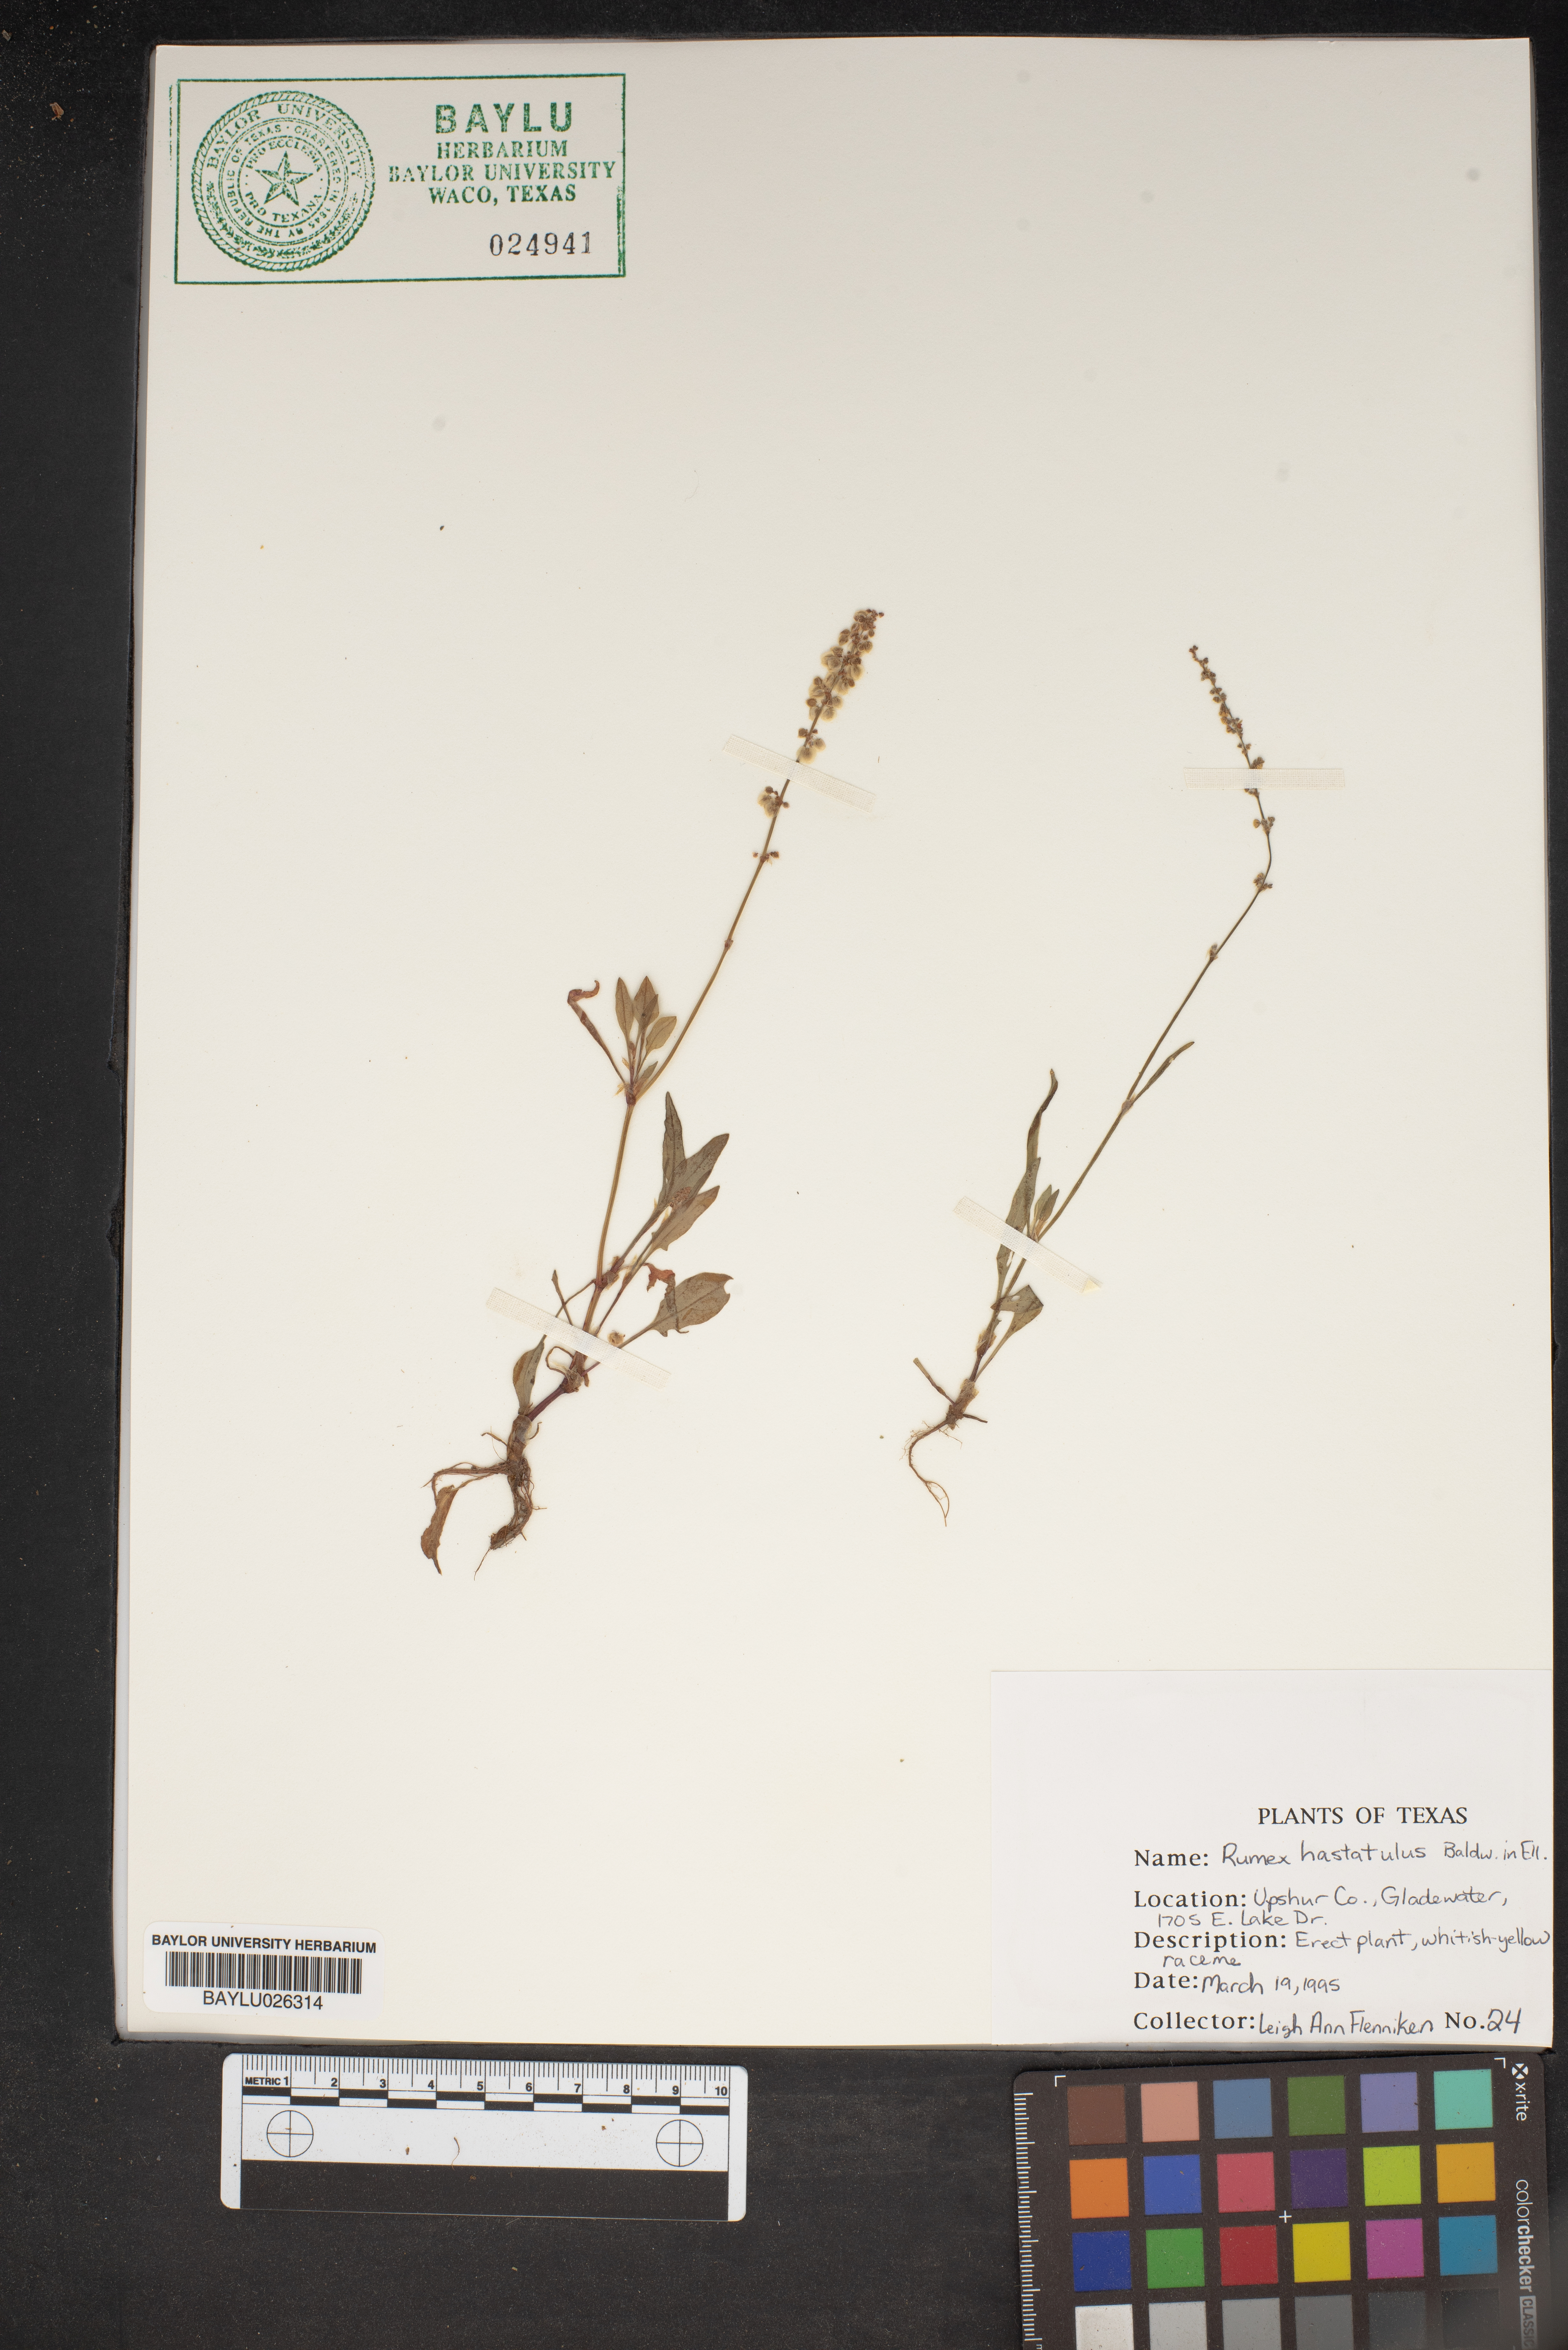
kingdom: Plantae
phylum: Tracheophyta
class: Magnoliopsida
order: Caryophyllales
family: Polygonaceae
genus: Rumex
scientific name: Rumex hastatulus
